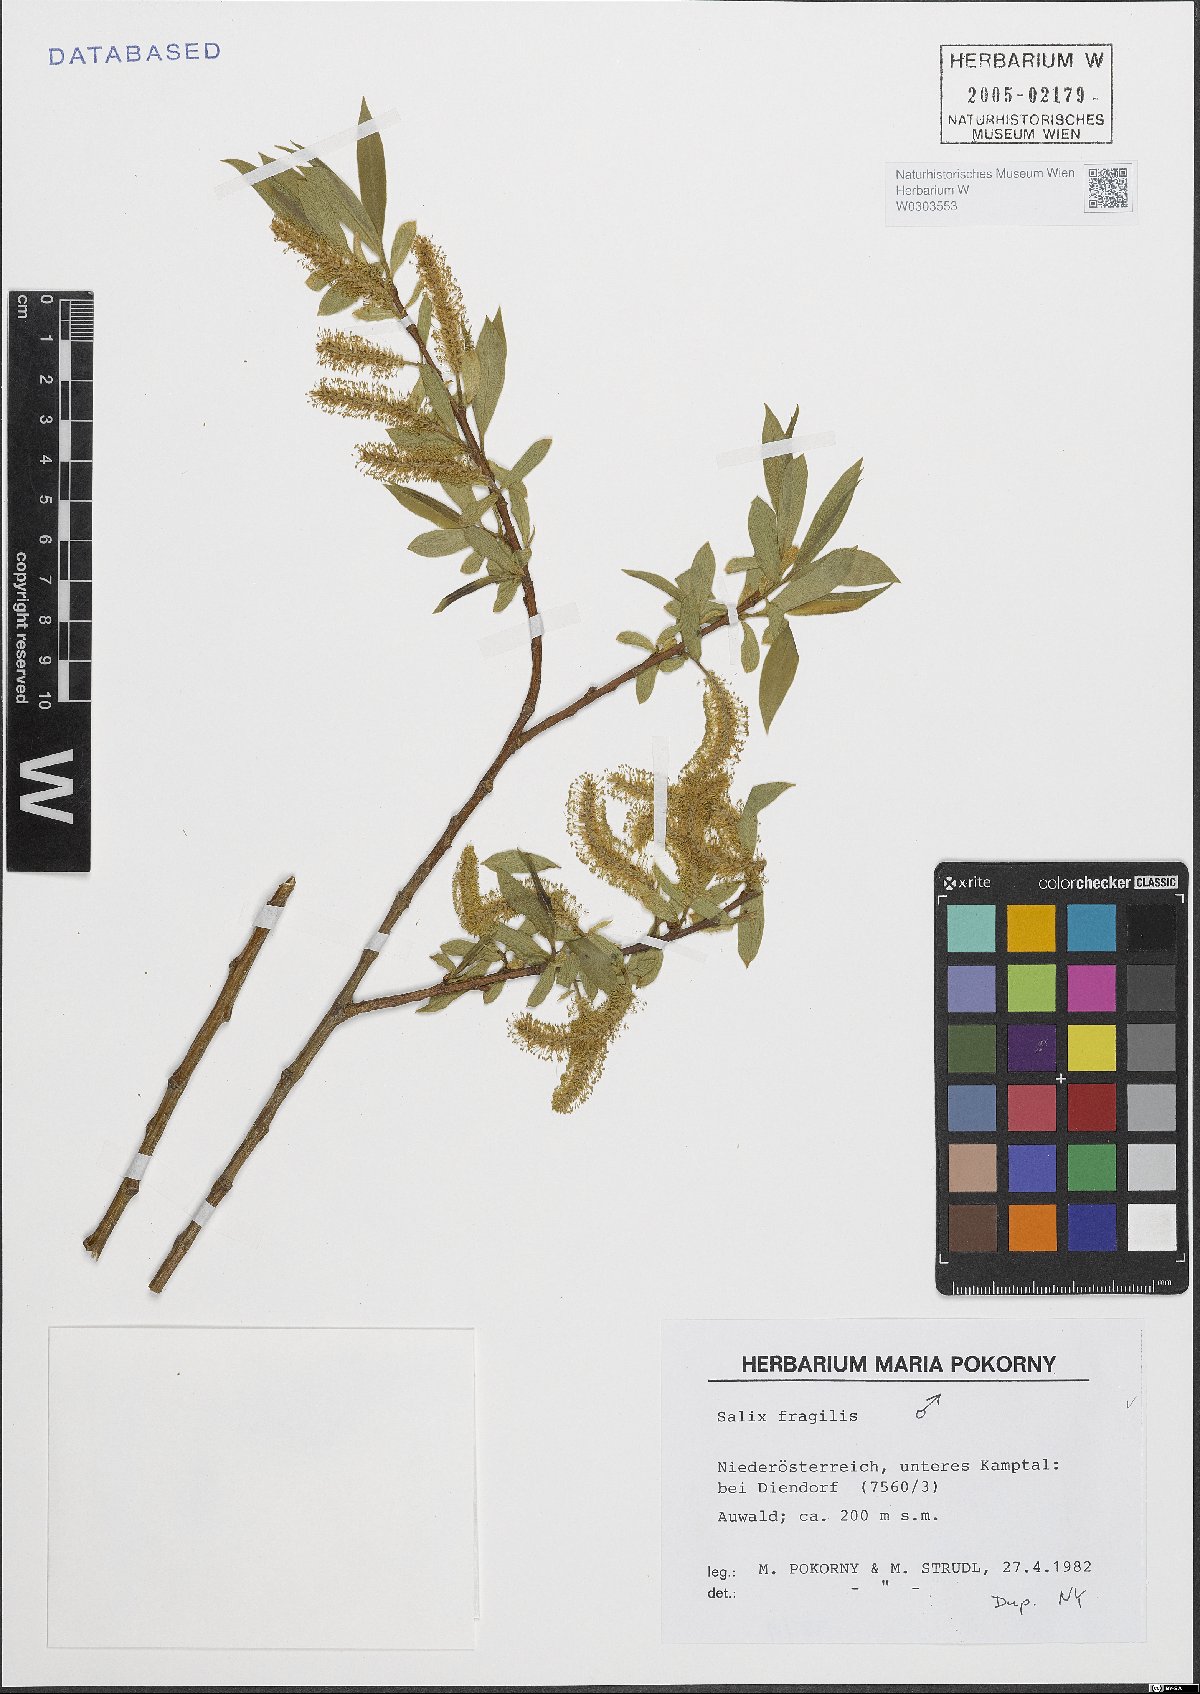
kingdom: Plantae
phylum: Tracheophyta
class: Magnoliopsida
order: Malpighiales
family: Salicaceae
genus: Salix
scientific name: Salix fragilis
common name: Crack willow
